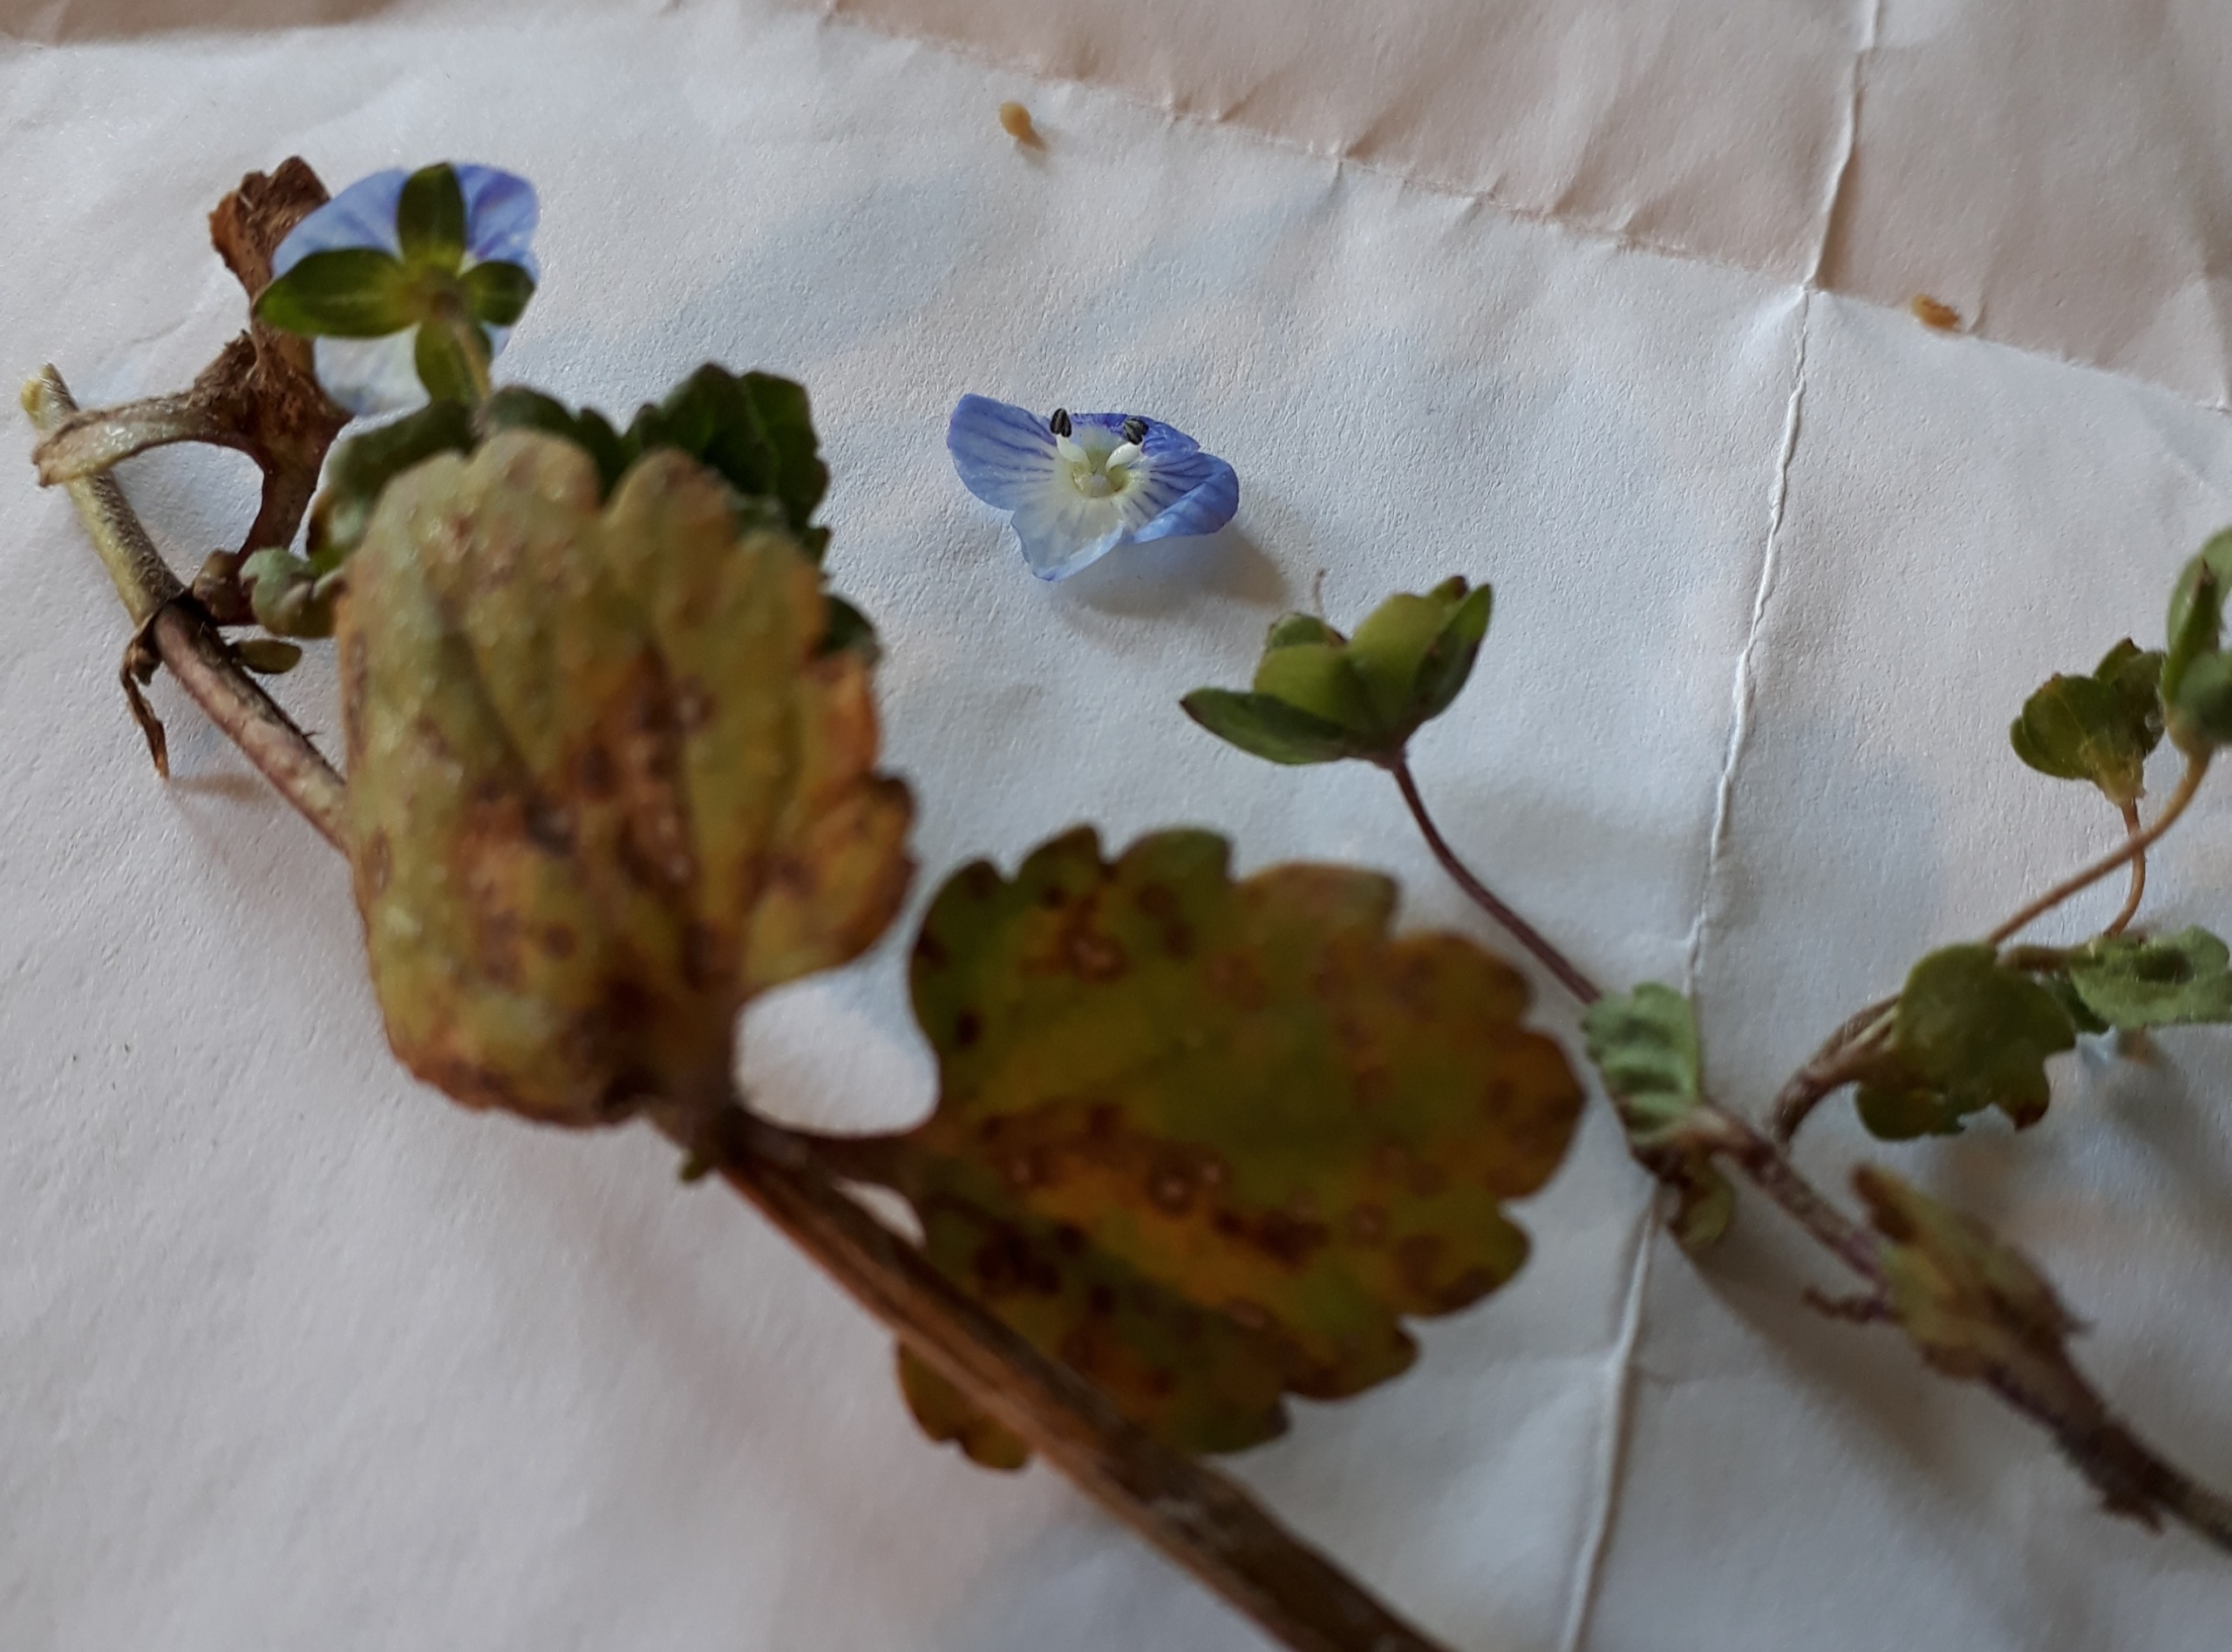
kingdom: Plantae
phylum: Tracheophyta
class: Magnoliopsida
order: Lamiales
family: Plantaginaceae
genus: Veronica
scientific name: Veronica persica
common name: Storkronet ærenpris
